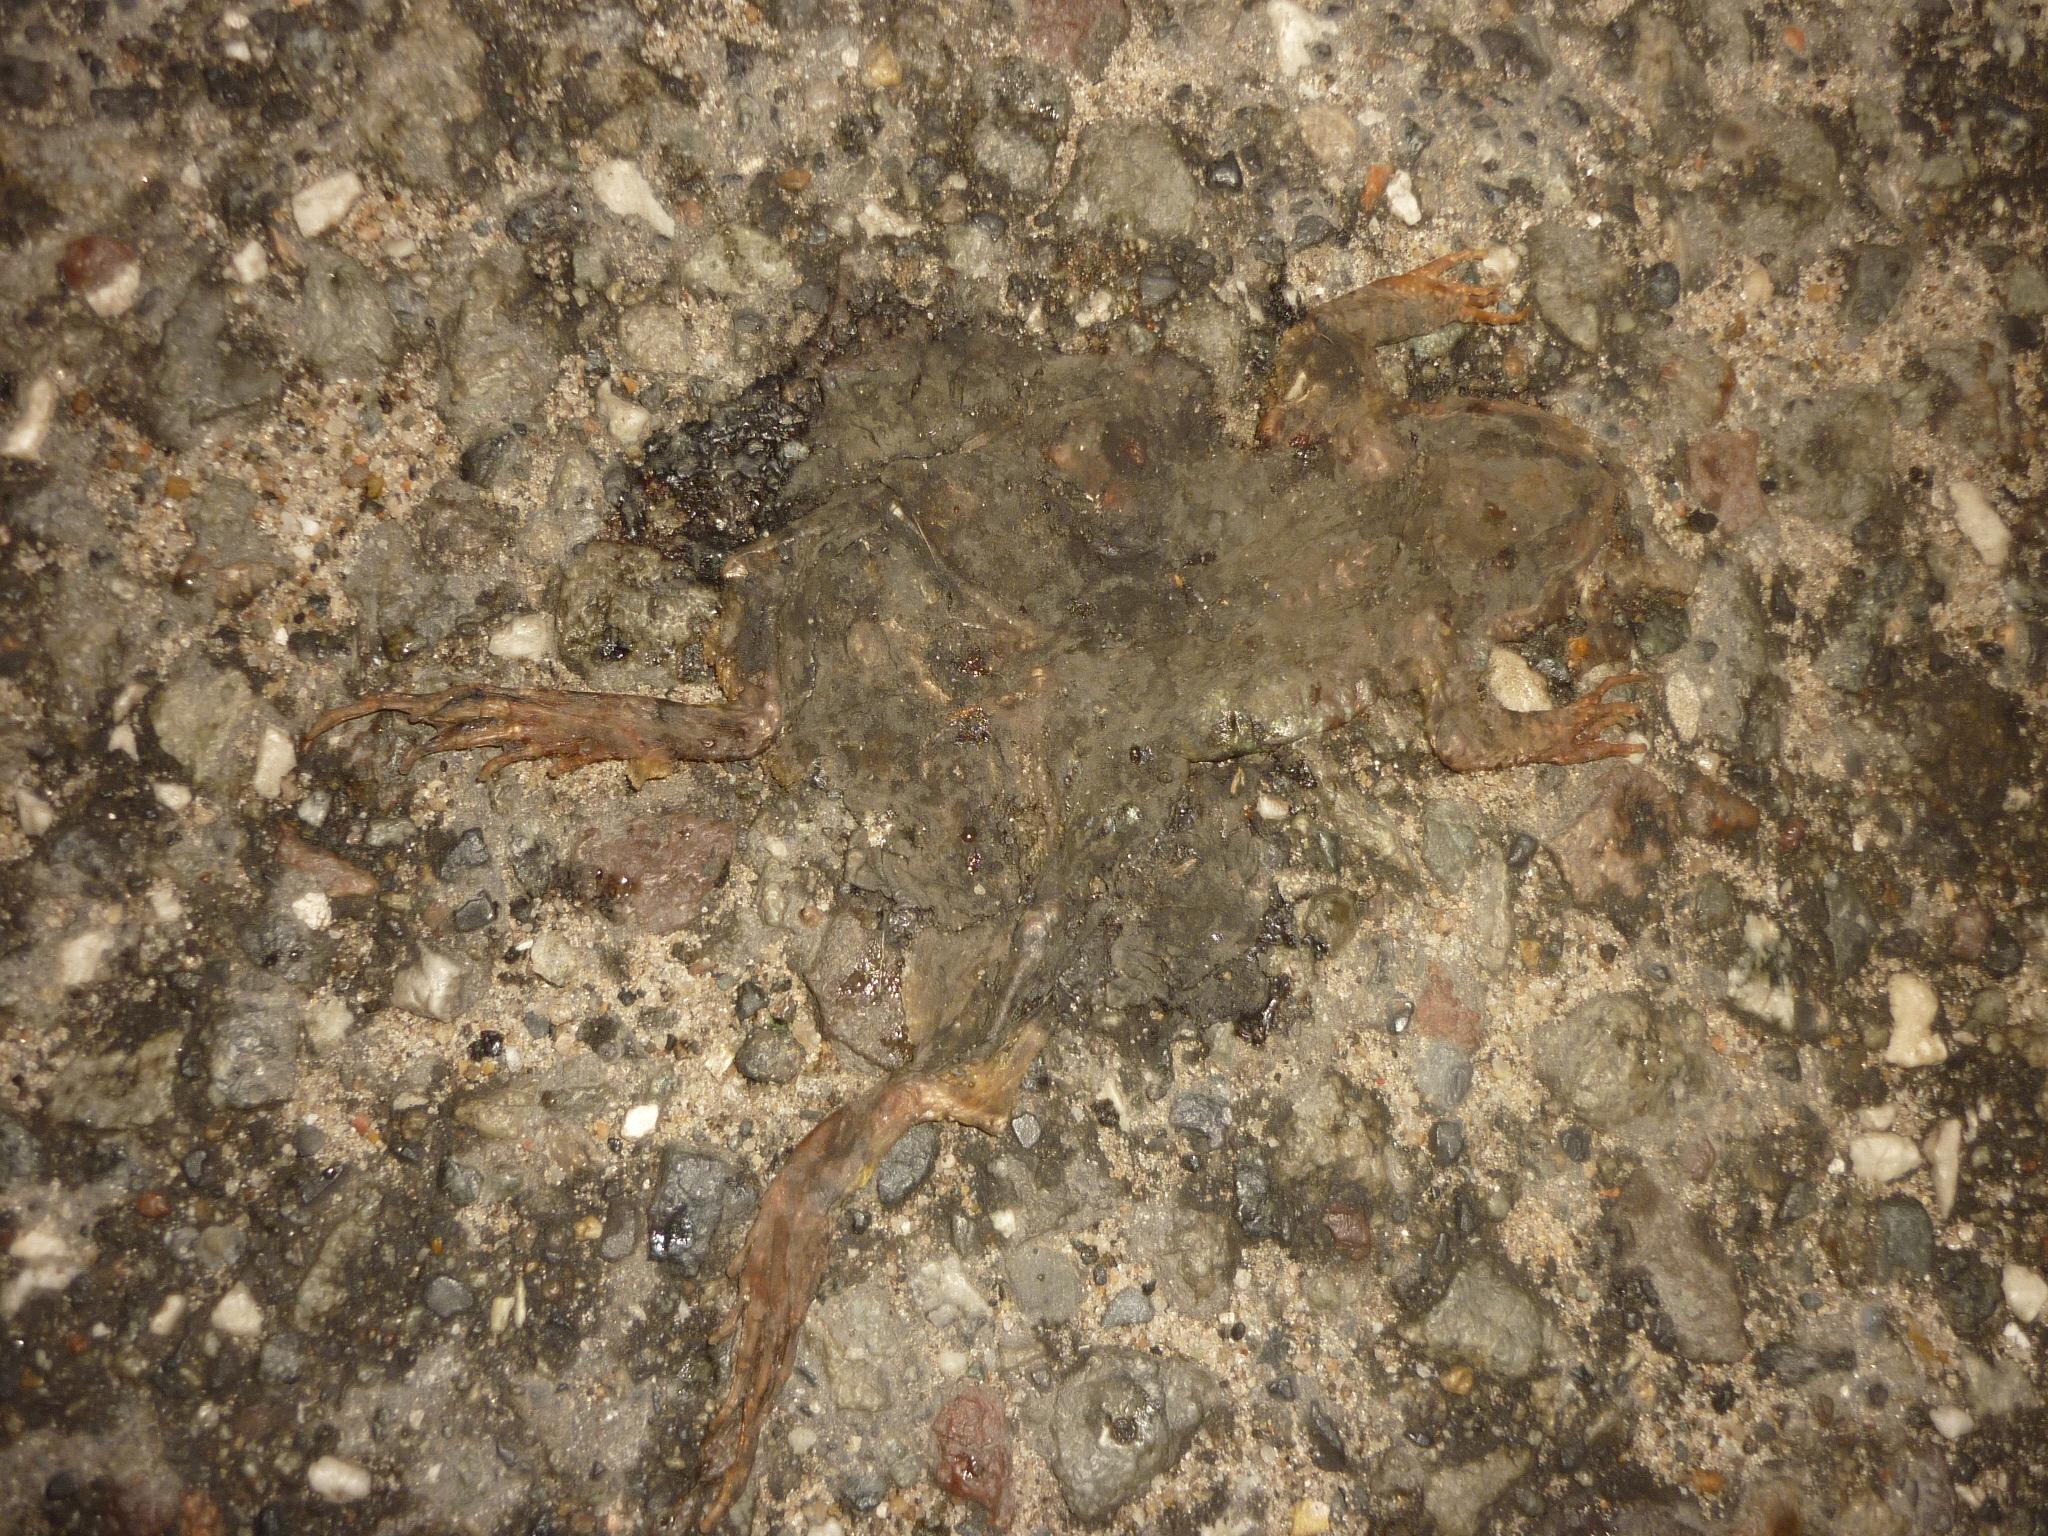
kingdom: Animalia
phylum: Chordata
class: Amphibia
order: Anura
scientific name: Anura
